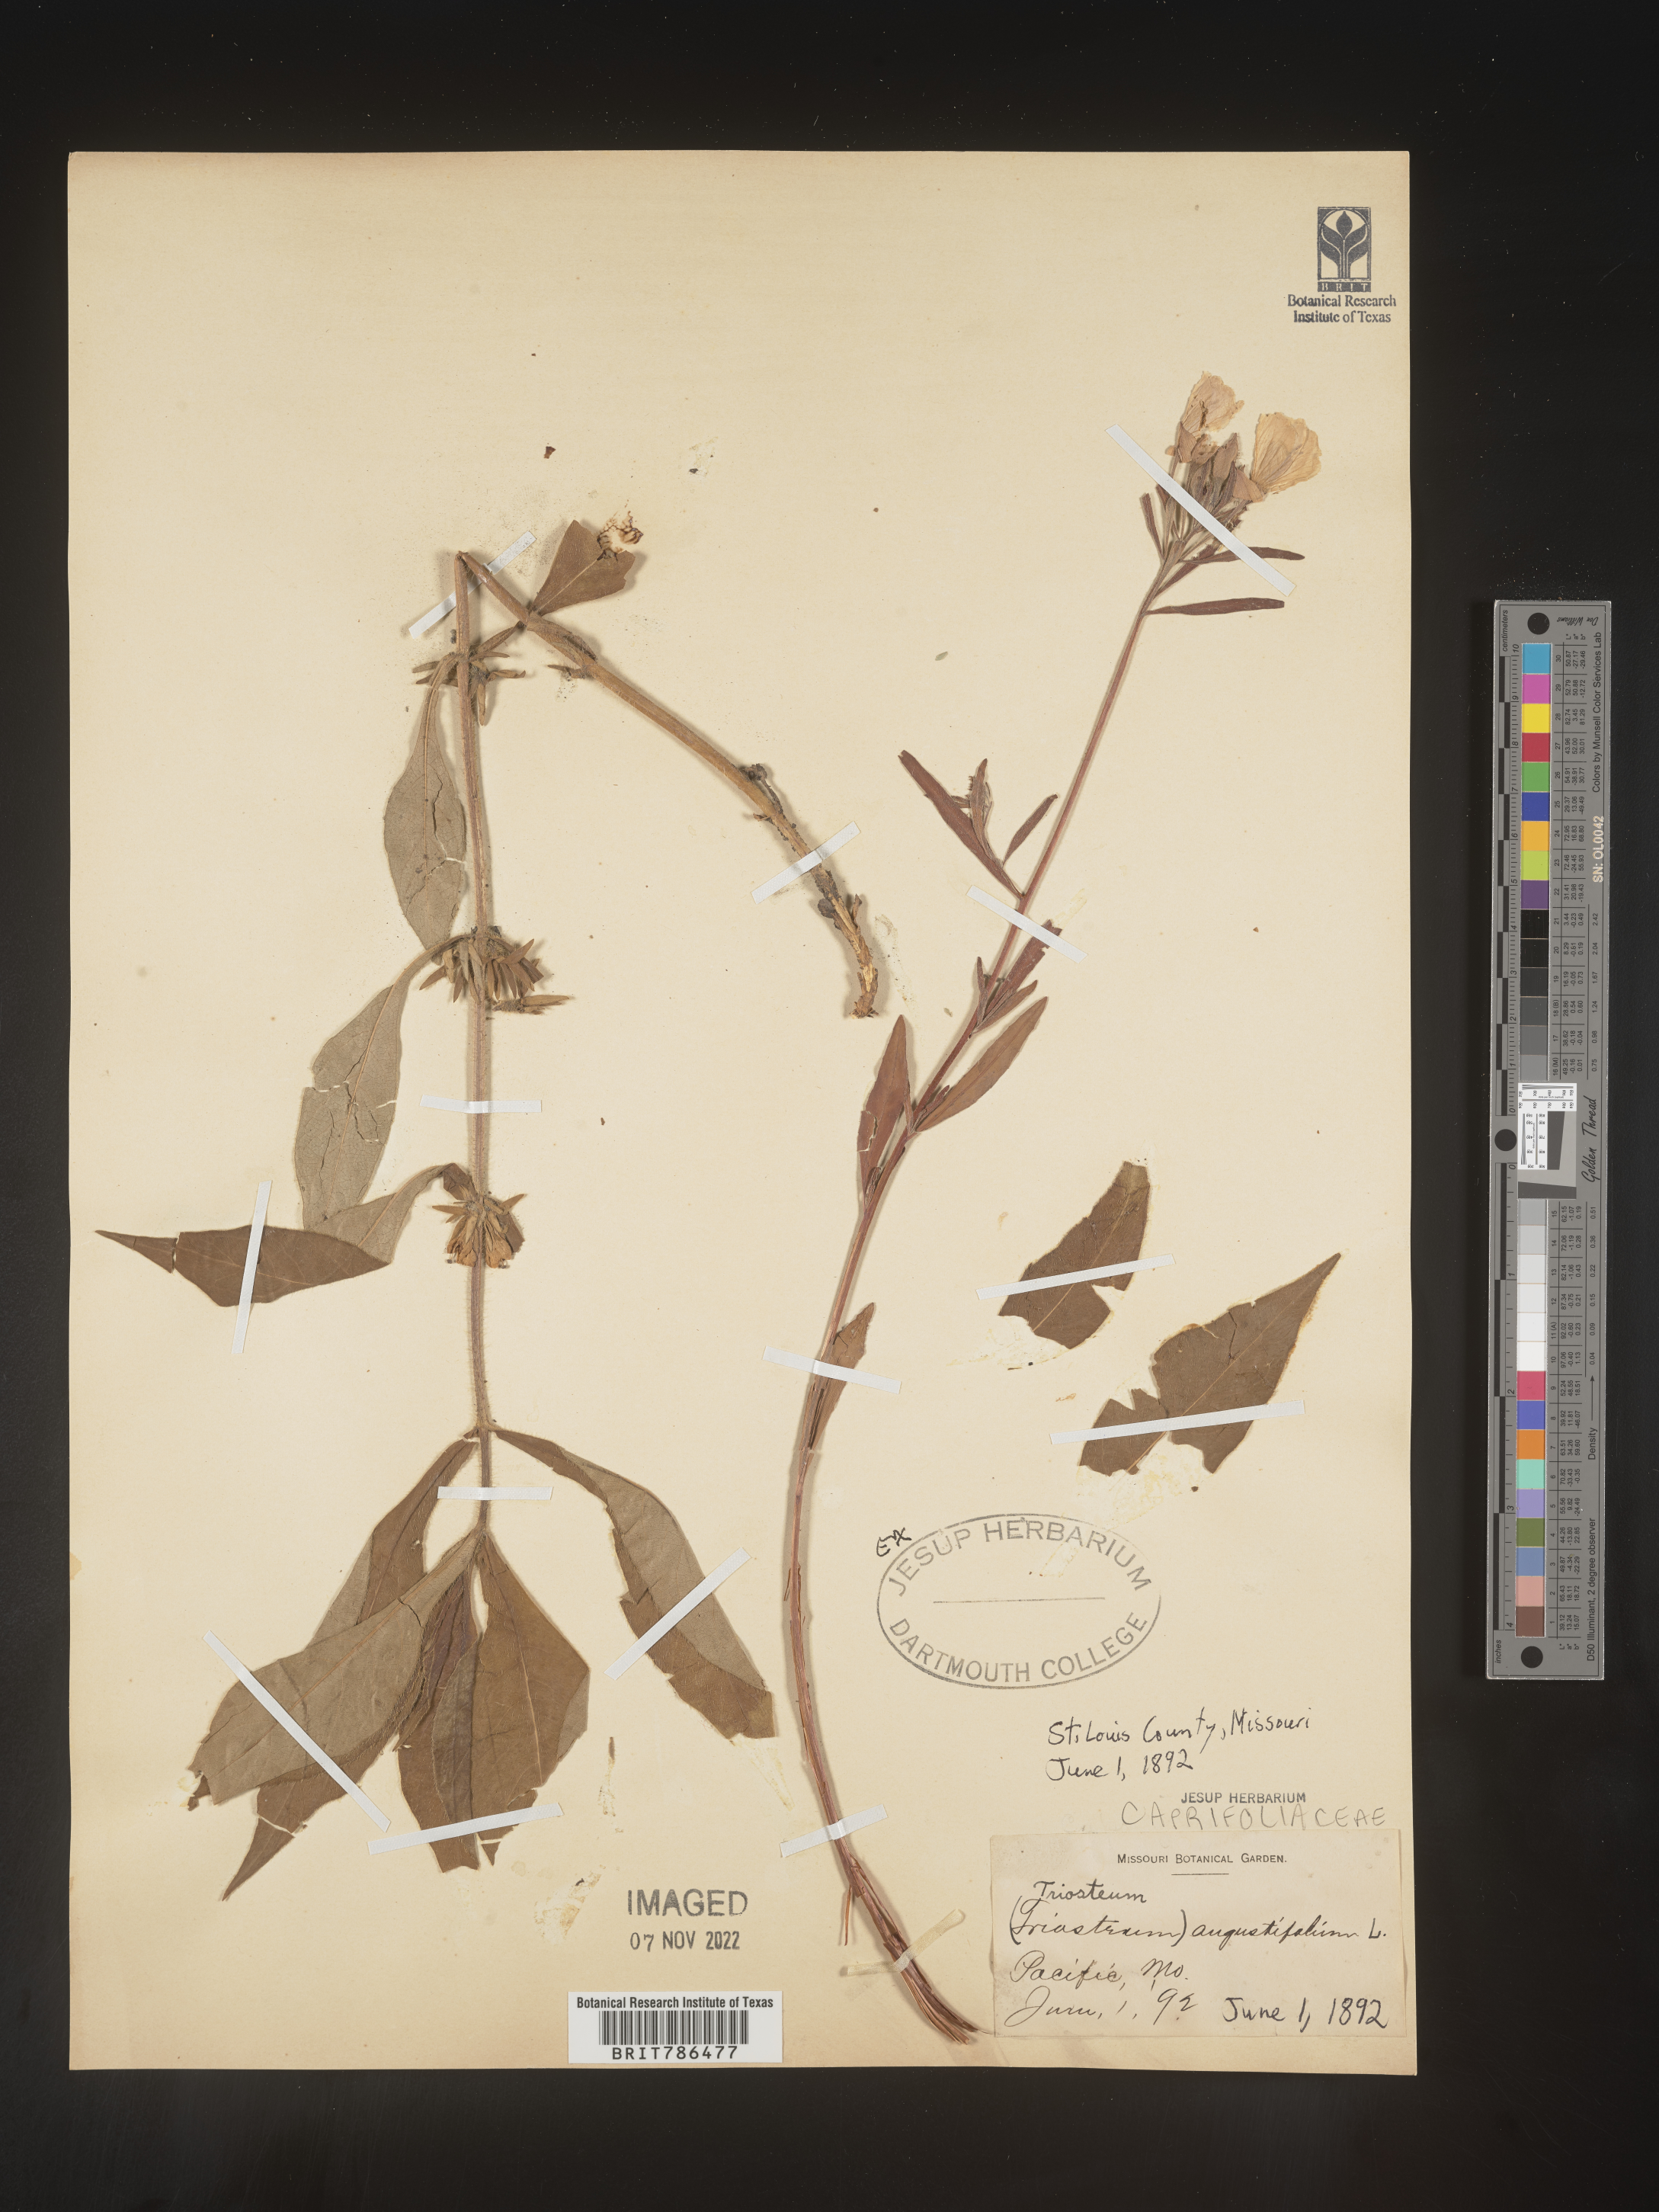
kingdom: Plantae
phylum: Tracheophyta
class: Magnoliopsida
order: Dipsacales
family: Caprifoliaceae
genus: Triosteum
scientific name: Triosteum angustifolium
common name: Narrow-leaved horse-gentian
